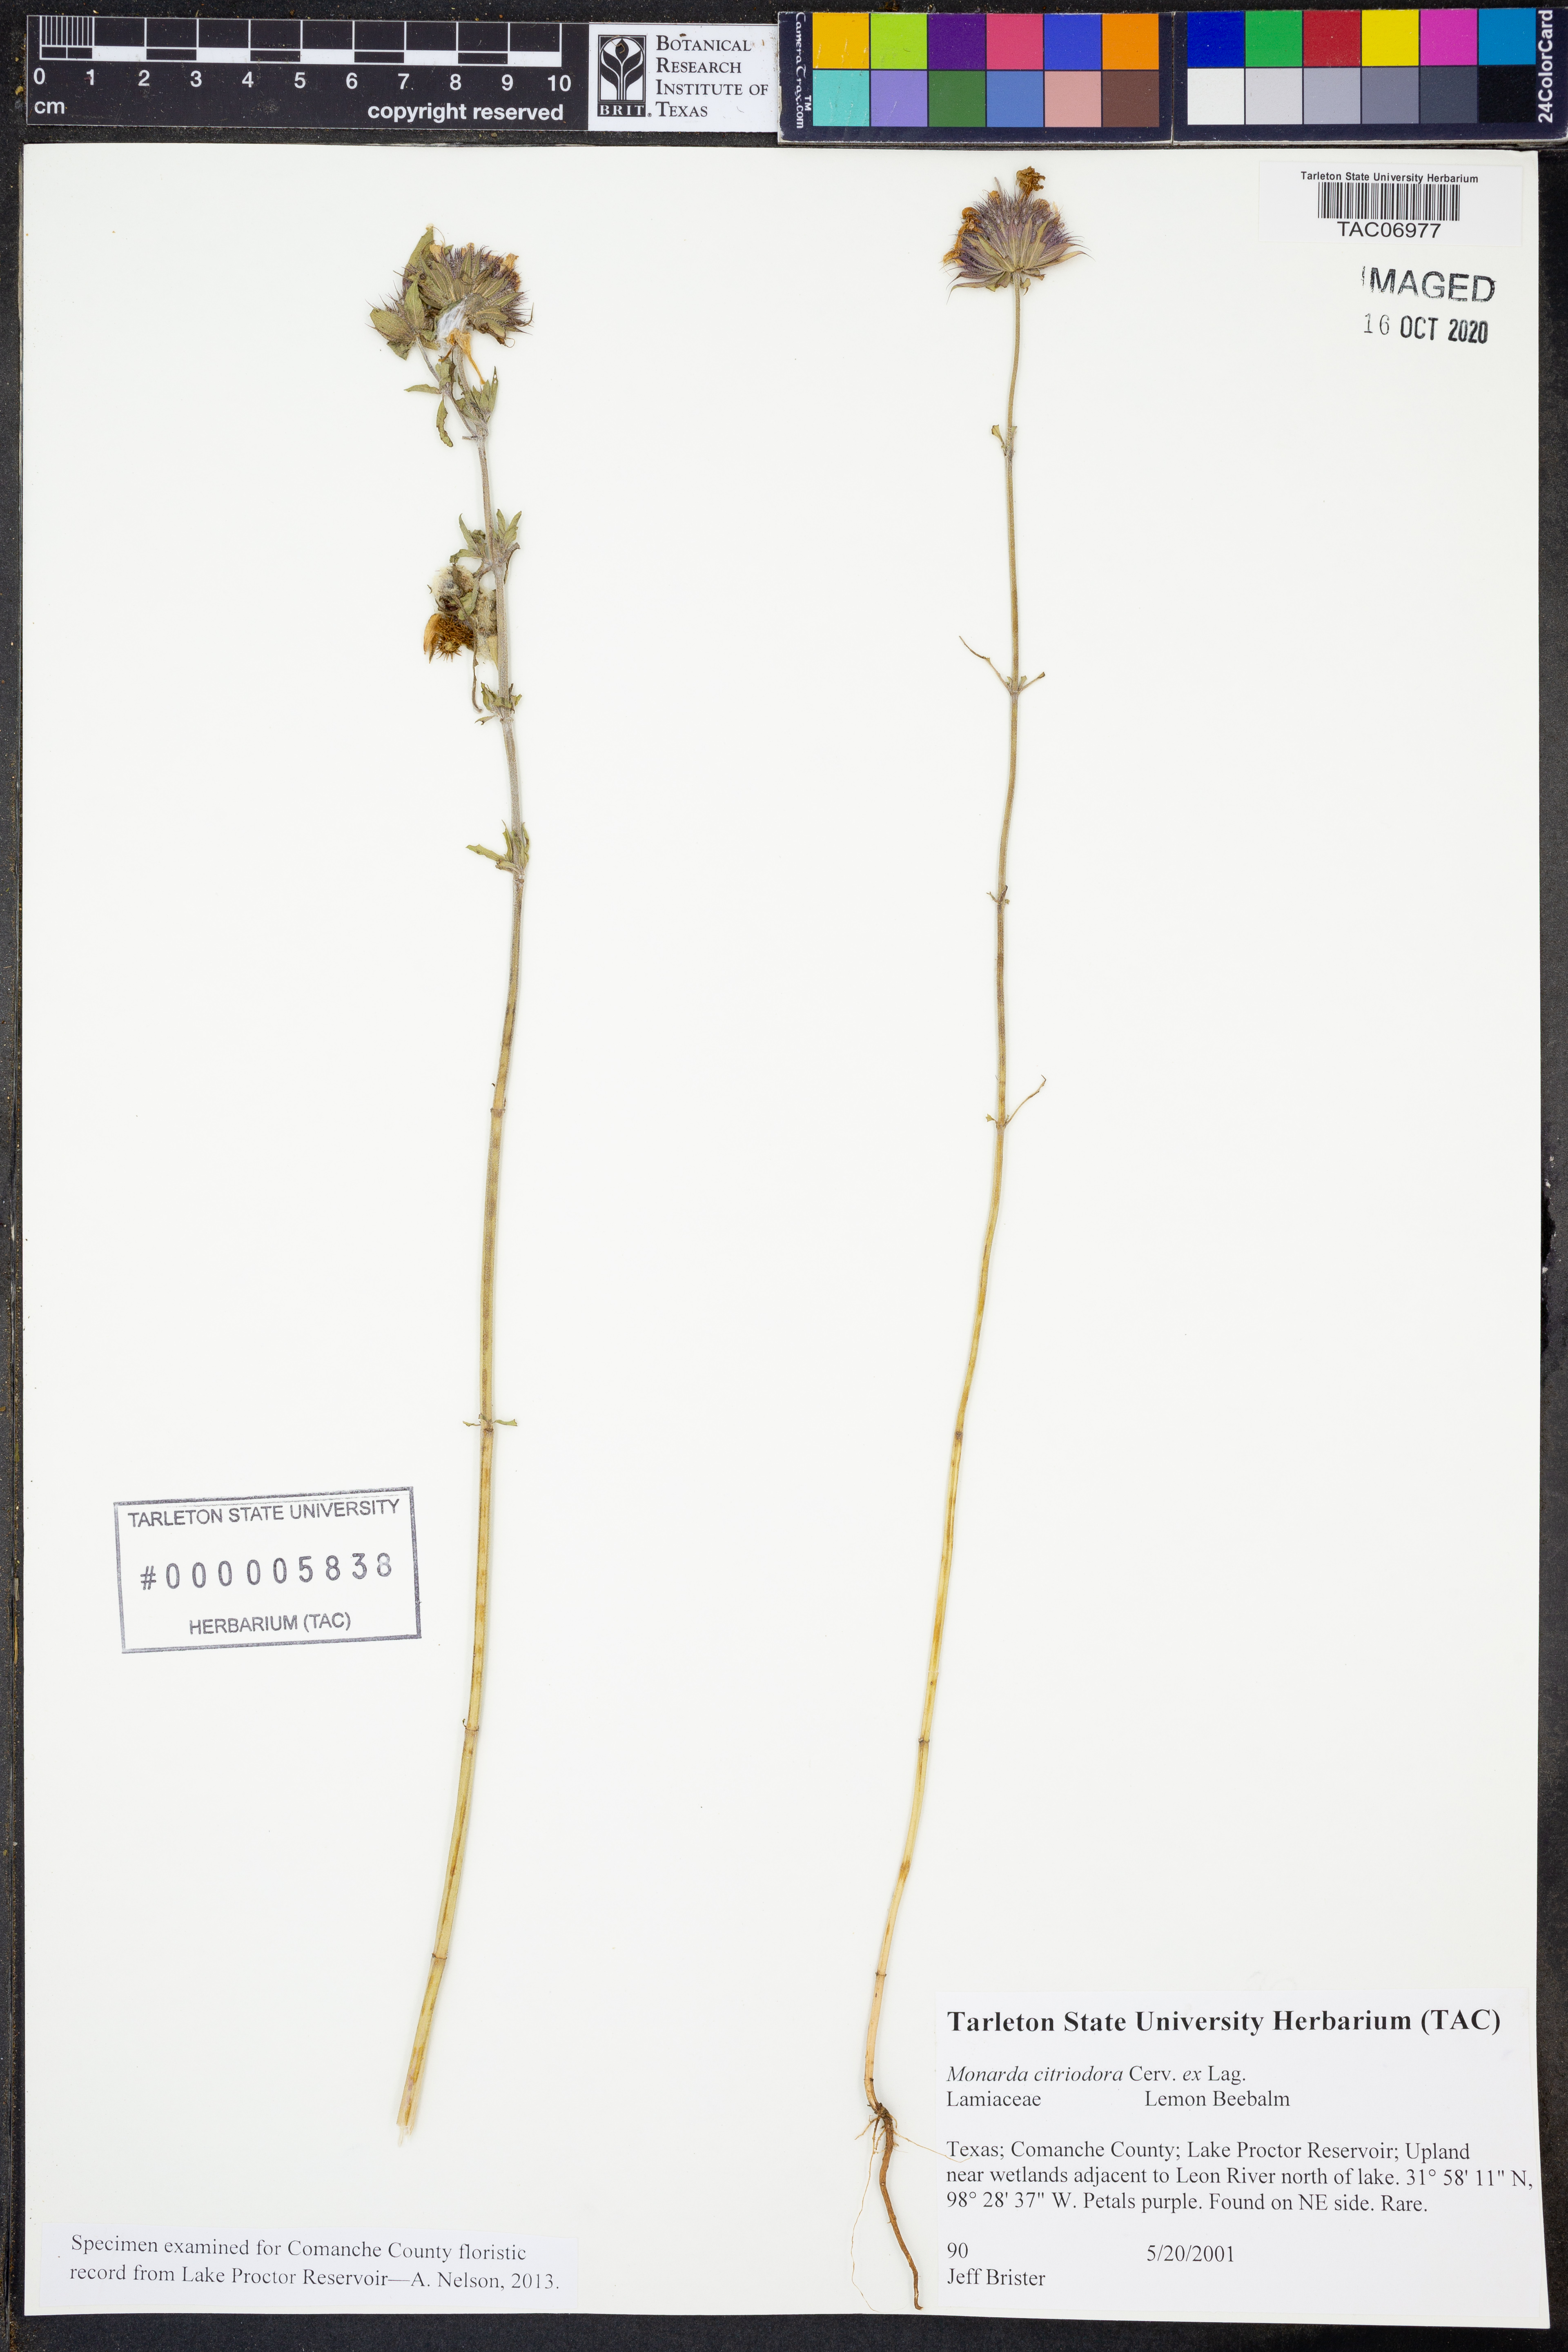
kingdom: Plantae
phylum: Tracheophyta
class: Magnoliopsida
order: Lamiales
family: Lamiaceae
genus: Monarda
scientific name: Monarda citriodora
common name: Lemon beebalm
